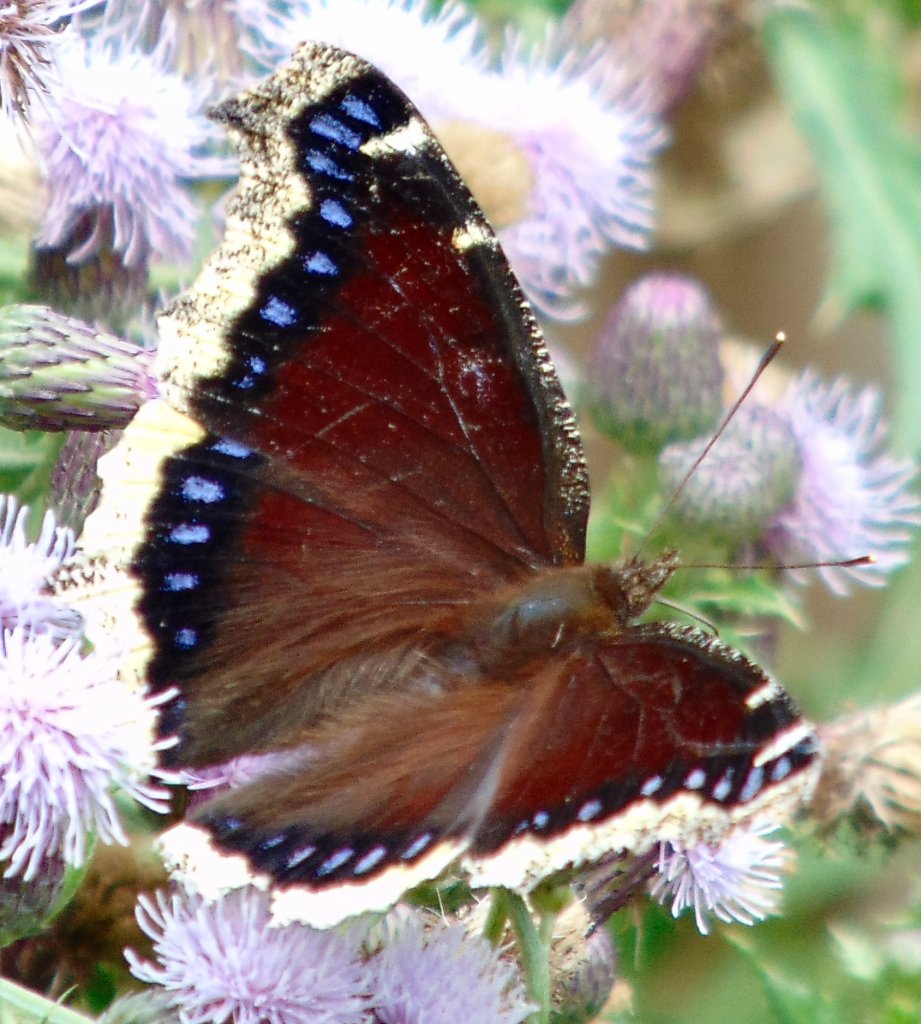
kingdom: Animalia
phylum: Arthropoda
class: Insecta
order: Lepidoptera
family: Nymphalidae
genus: Nymphalis
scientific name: Nymphalis antiopa
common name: Mourning Cloak
